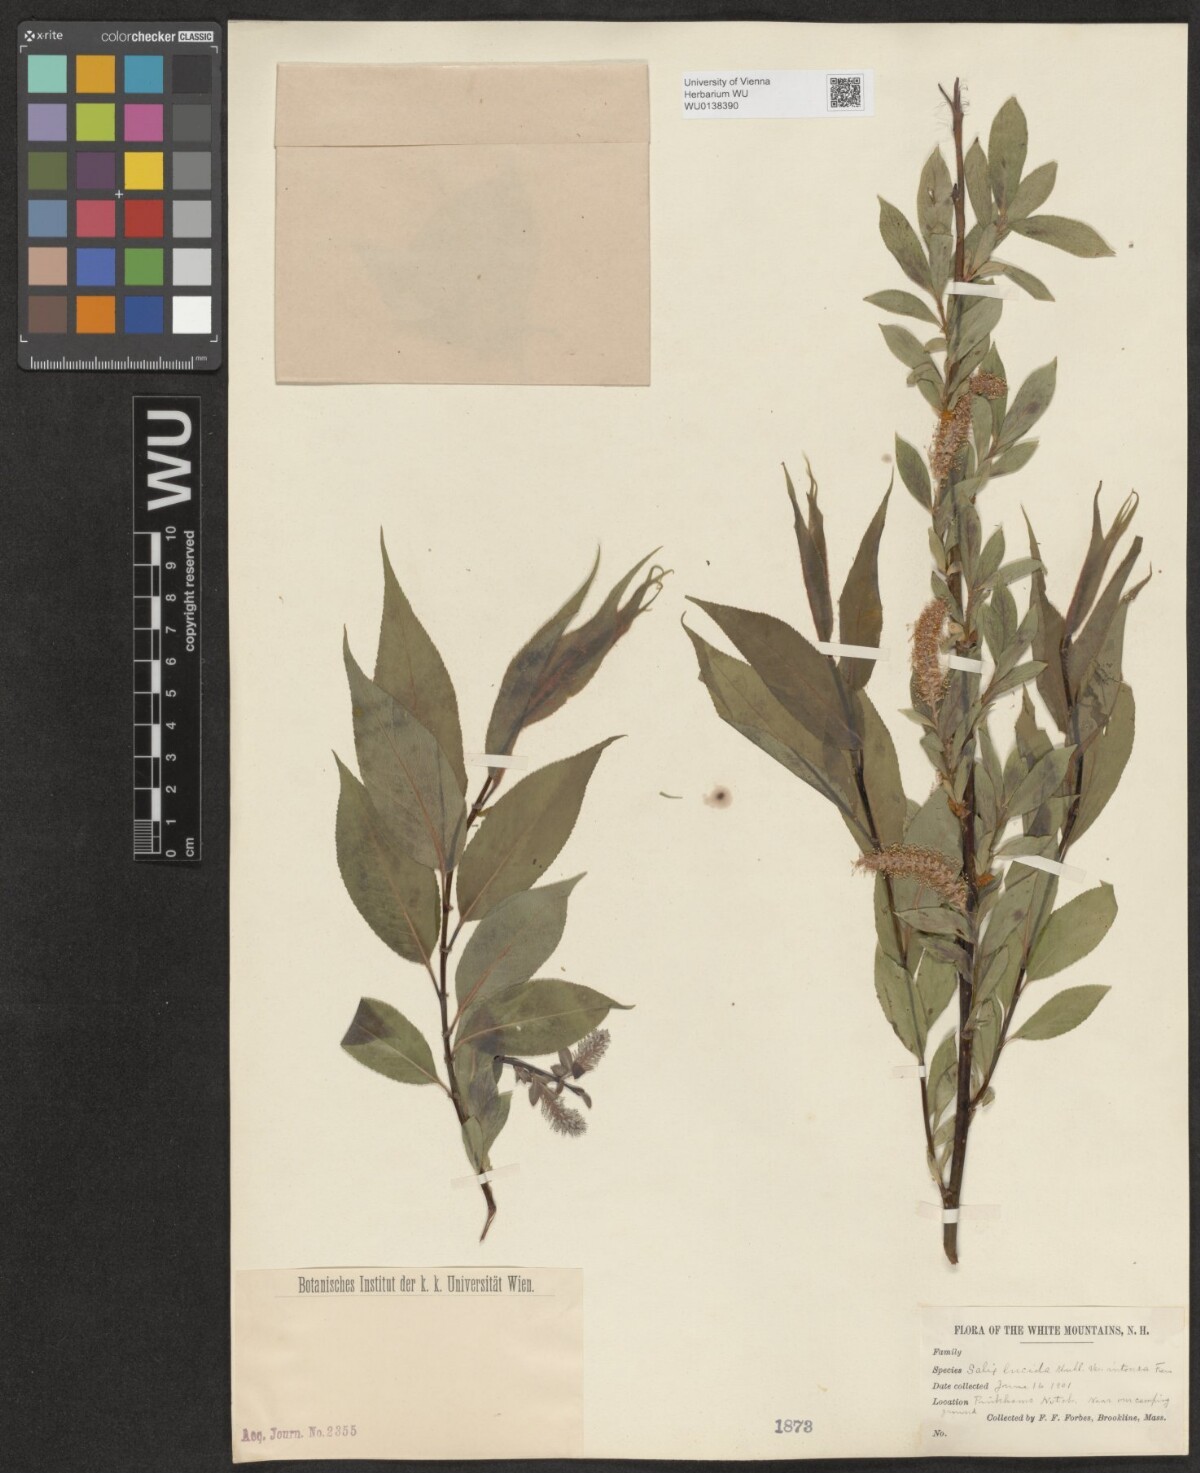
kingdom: Plantae
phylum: Tracheophyta
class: Magnoliopsida
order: Malpighiales
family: Salicaceae
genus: Salix
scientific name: Salix lucida
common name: Shining willow
